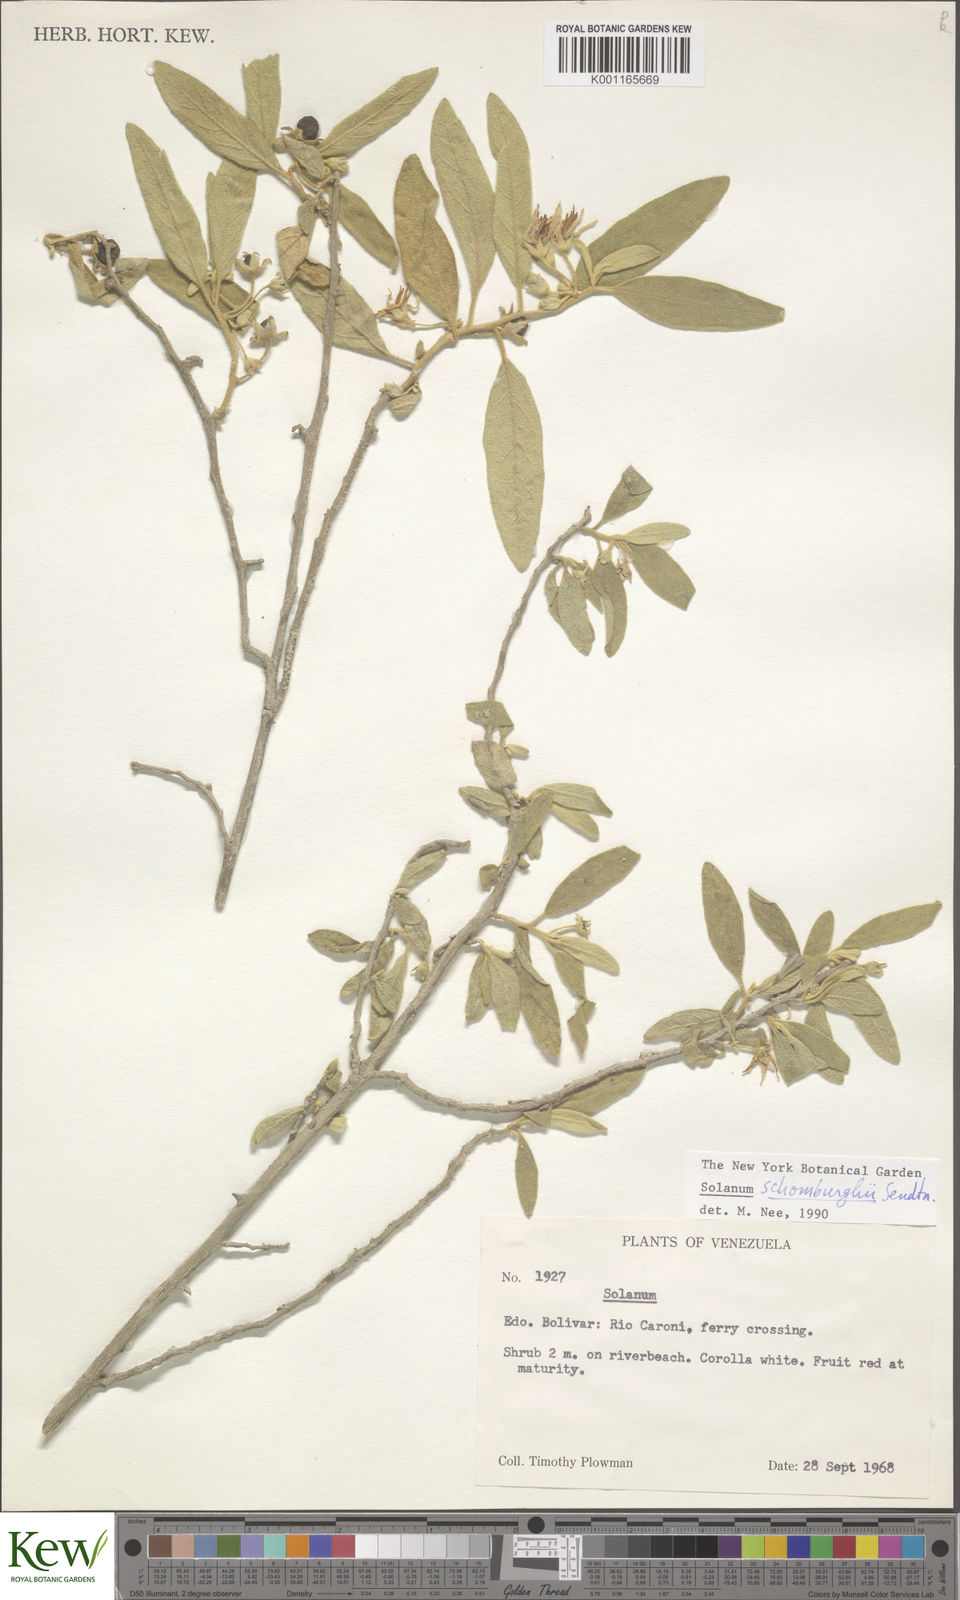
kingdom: Plantae
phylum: Tracheophyta
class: Magnoliopsida
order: Solanales
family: Solanaceae
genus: Solanum
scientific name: Solanum schomburgkii
